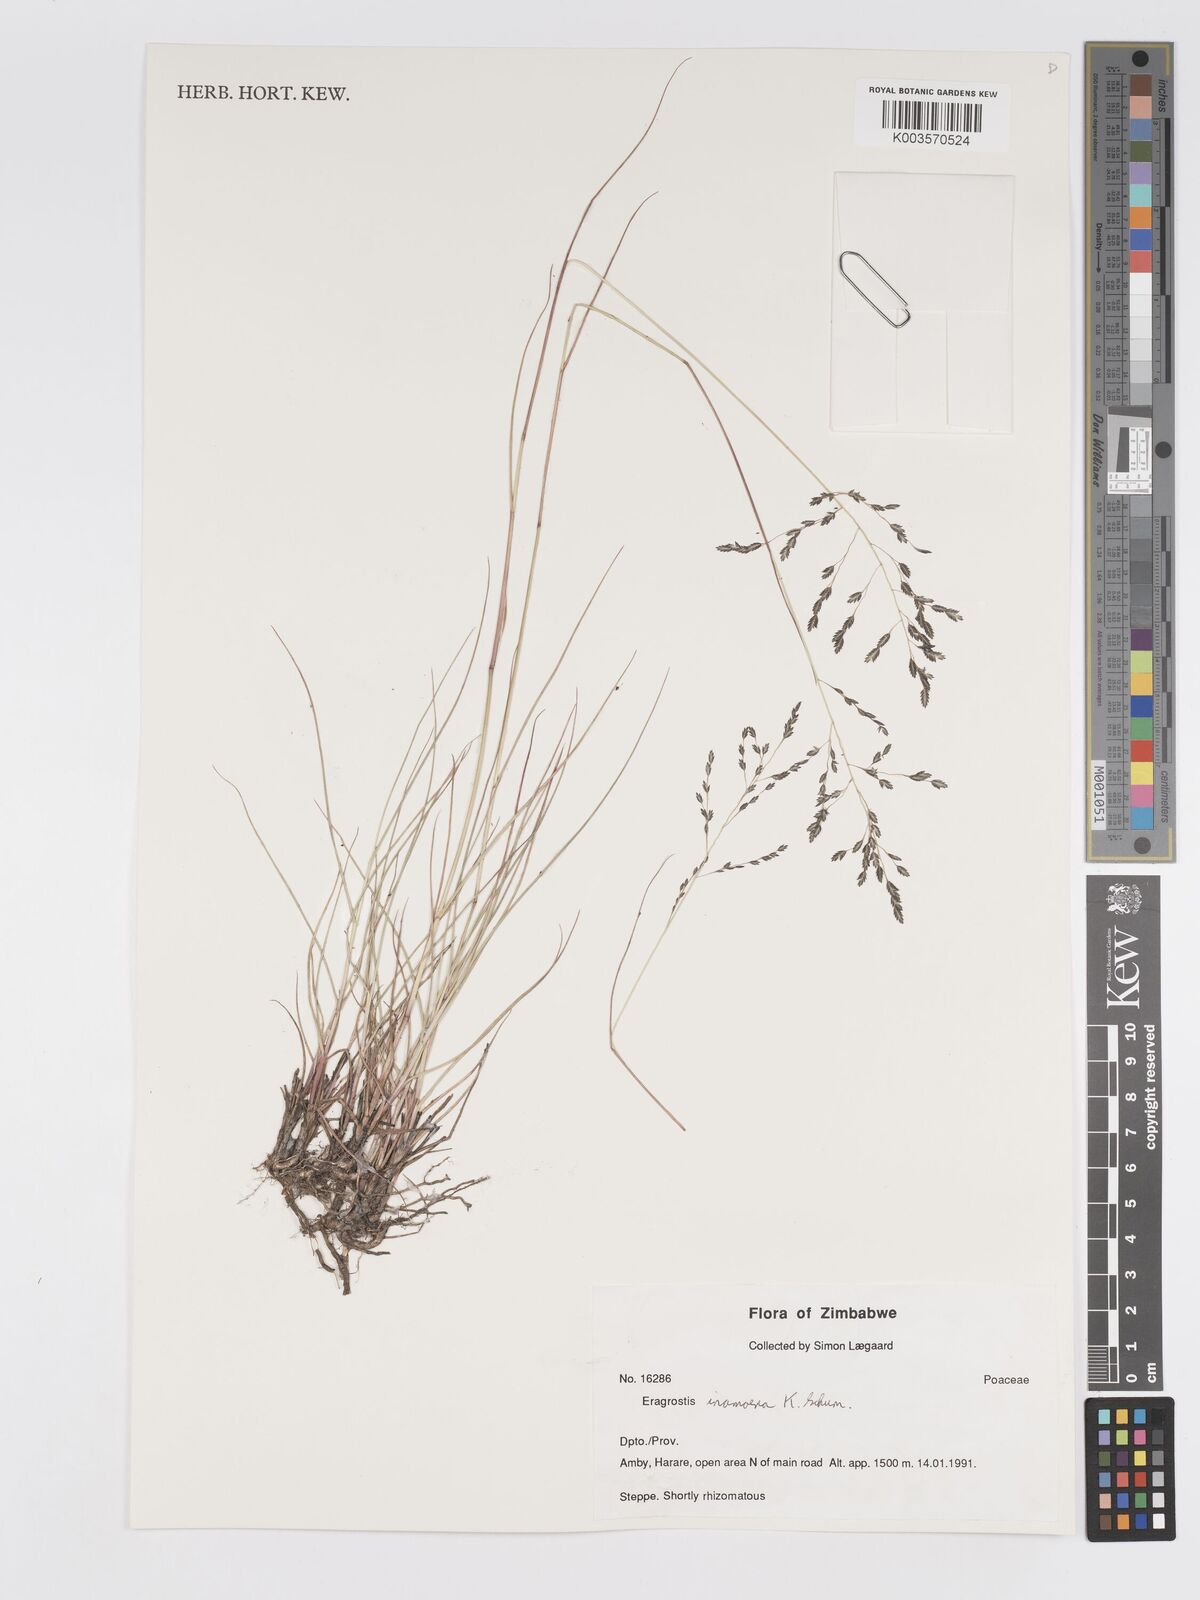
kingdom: Plantae
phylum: Tracheophyta
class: Liliopsida
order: Poales
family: Poaceae
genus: Eragrostis
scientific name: Eragrostis inamoena
